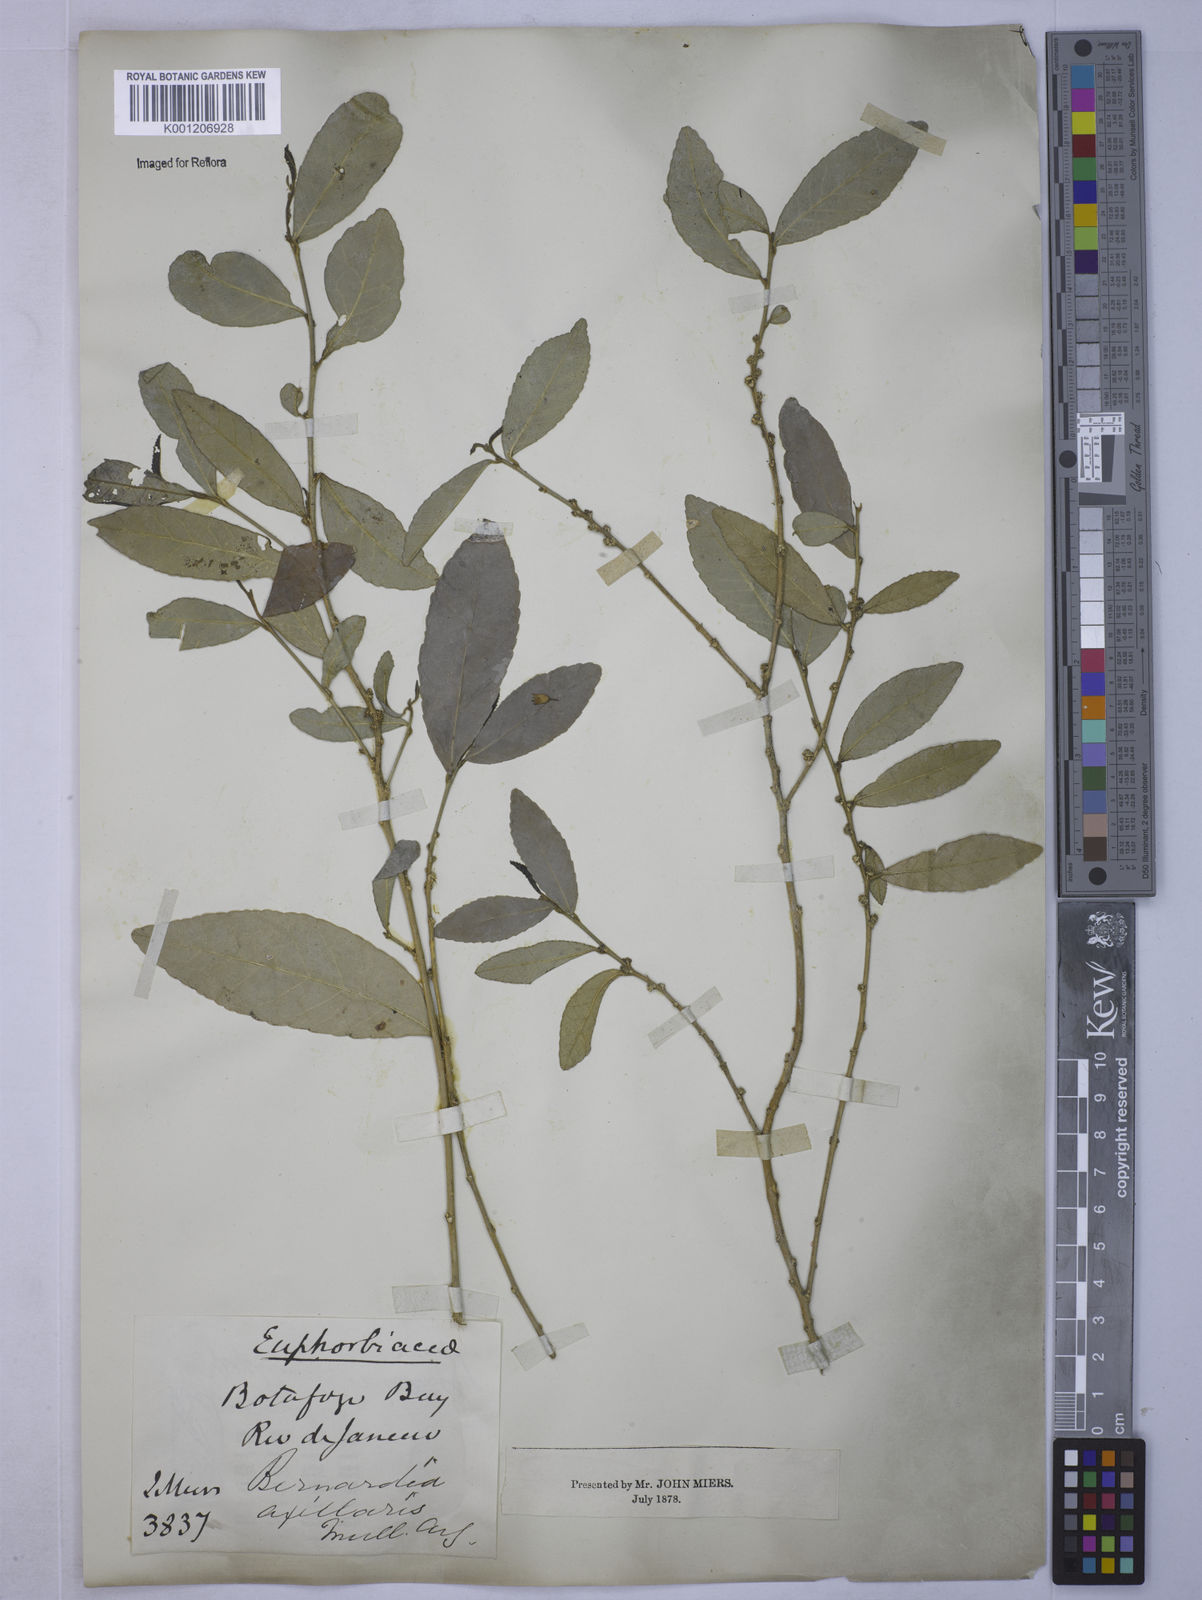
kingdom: Plantae
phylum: Tracheophyta
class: Magnoliopsida
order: Malpighiales
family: Euphorbiaceae
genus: Bernardia
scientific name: Bernardia
